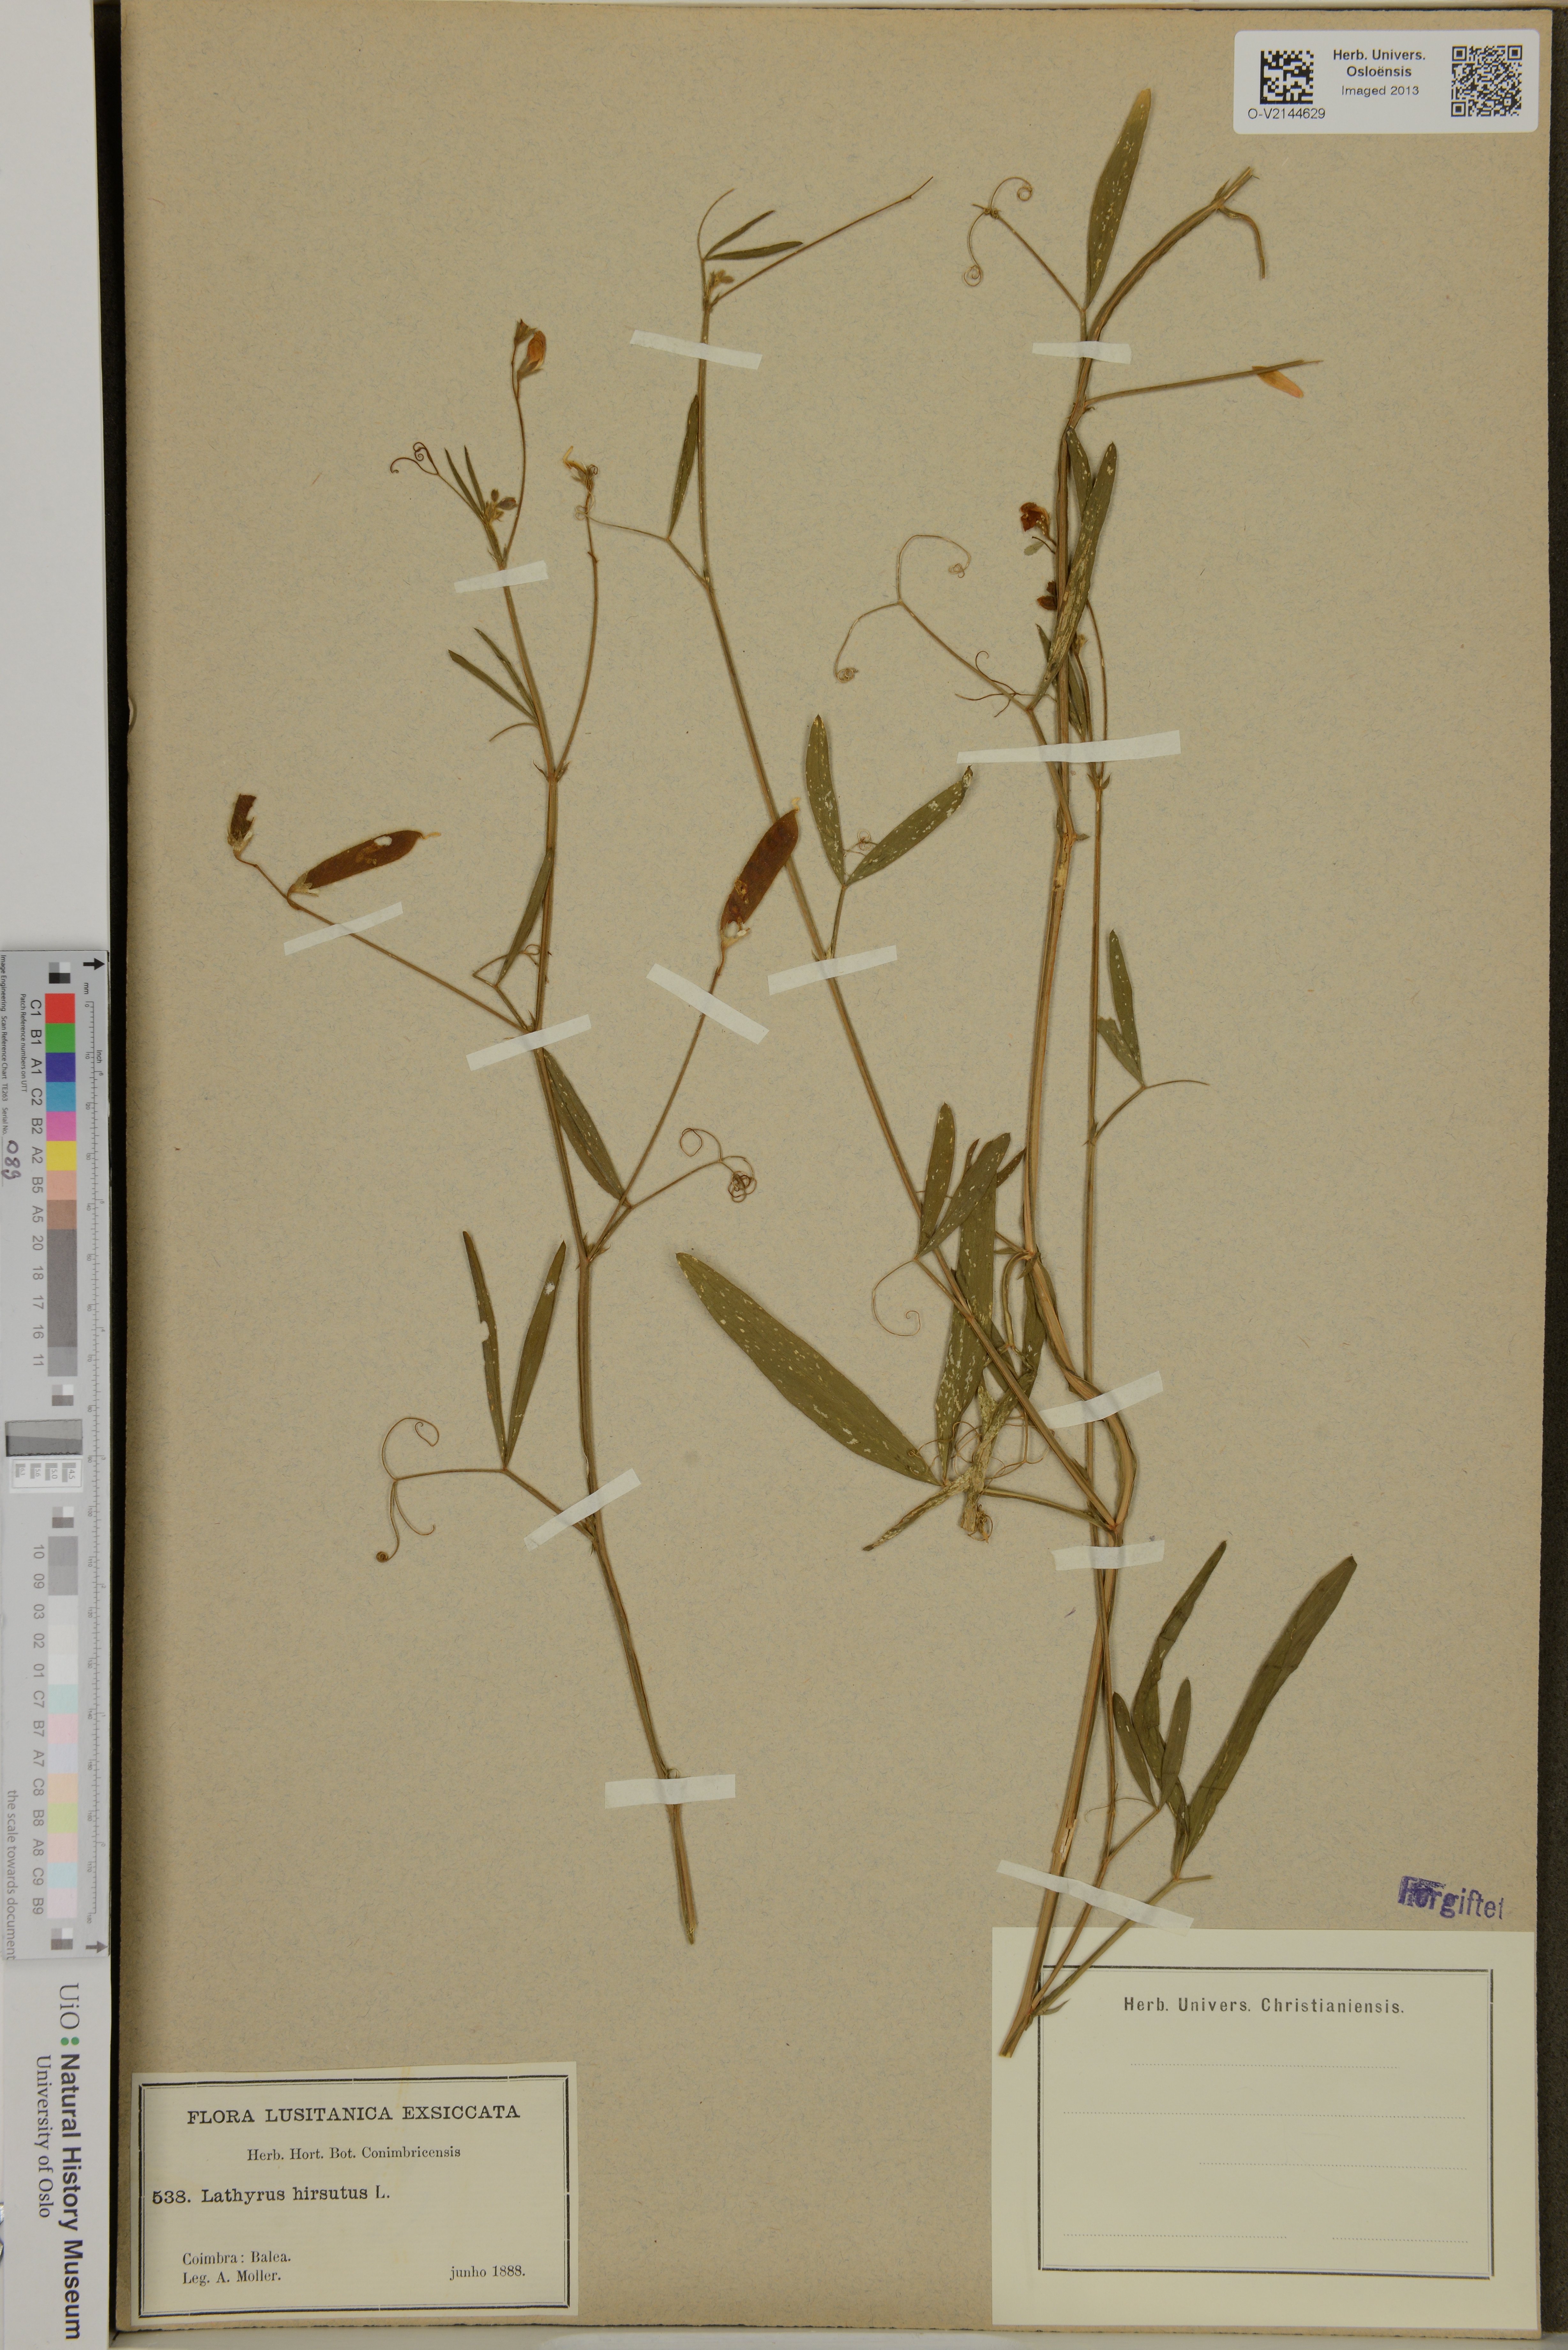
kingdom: Plantae
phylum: Tracheophyta
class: Magnoliopsida
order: Fabales
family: Fabaceae
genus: Lathyrus
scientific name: Lathyrus hirsutus
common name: Hairy vetchling
